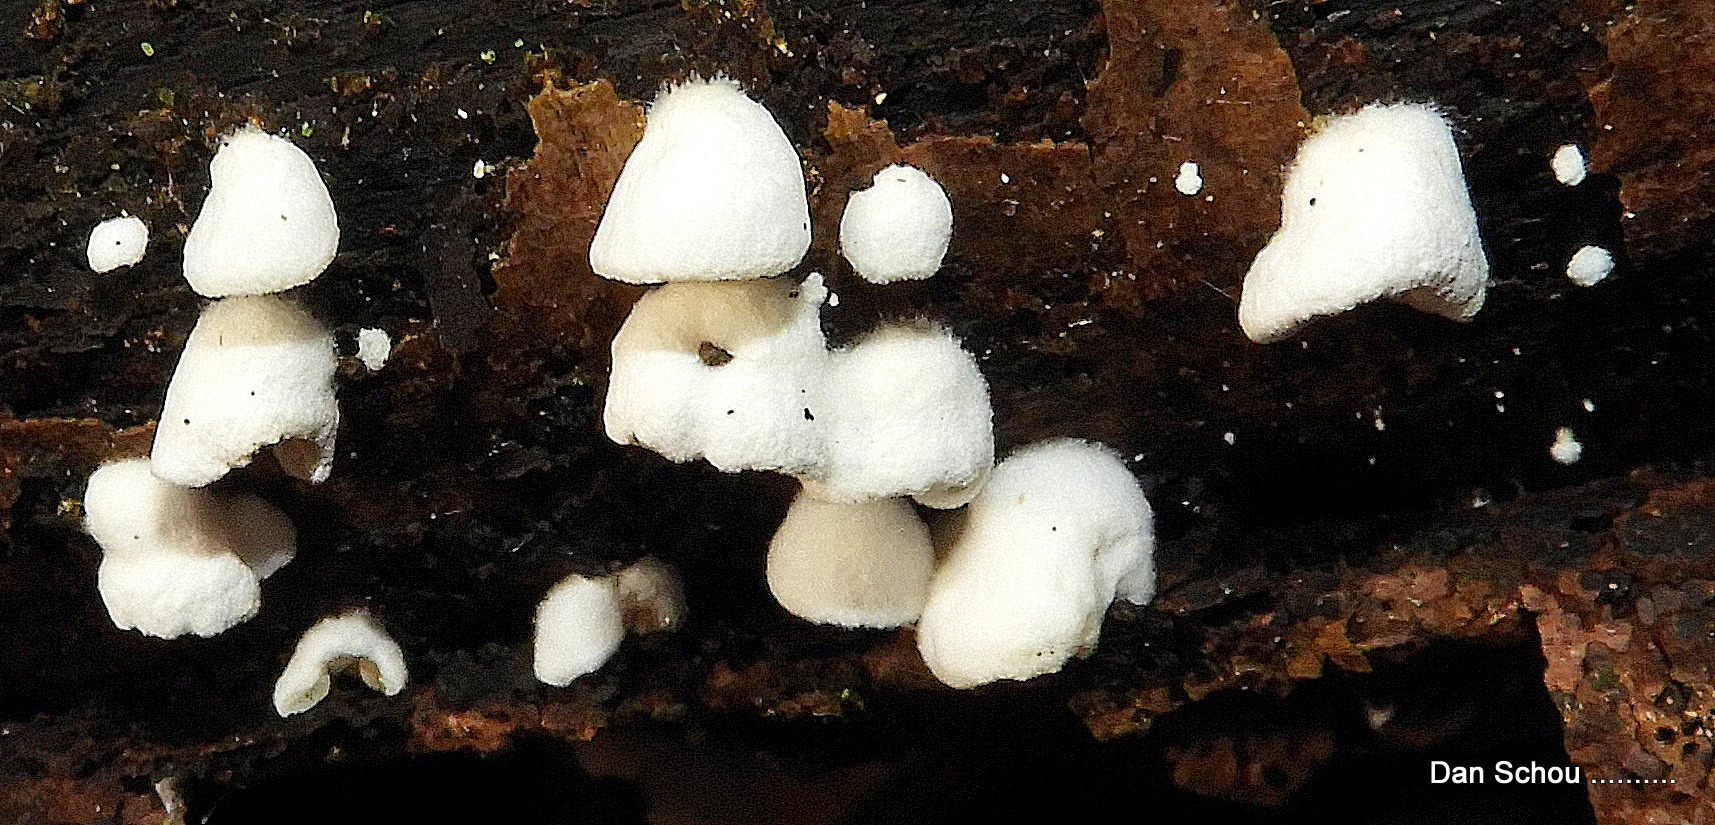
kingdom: Fungi
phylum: Basidiomycota
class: Agaricomycetes
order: Agaricales
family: Crepidotaceae
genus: Crepidotus
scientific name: Crepidotus
